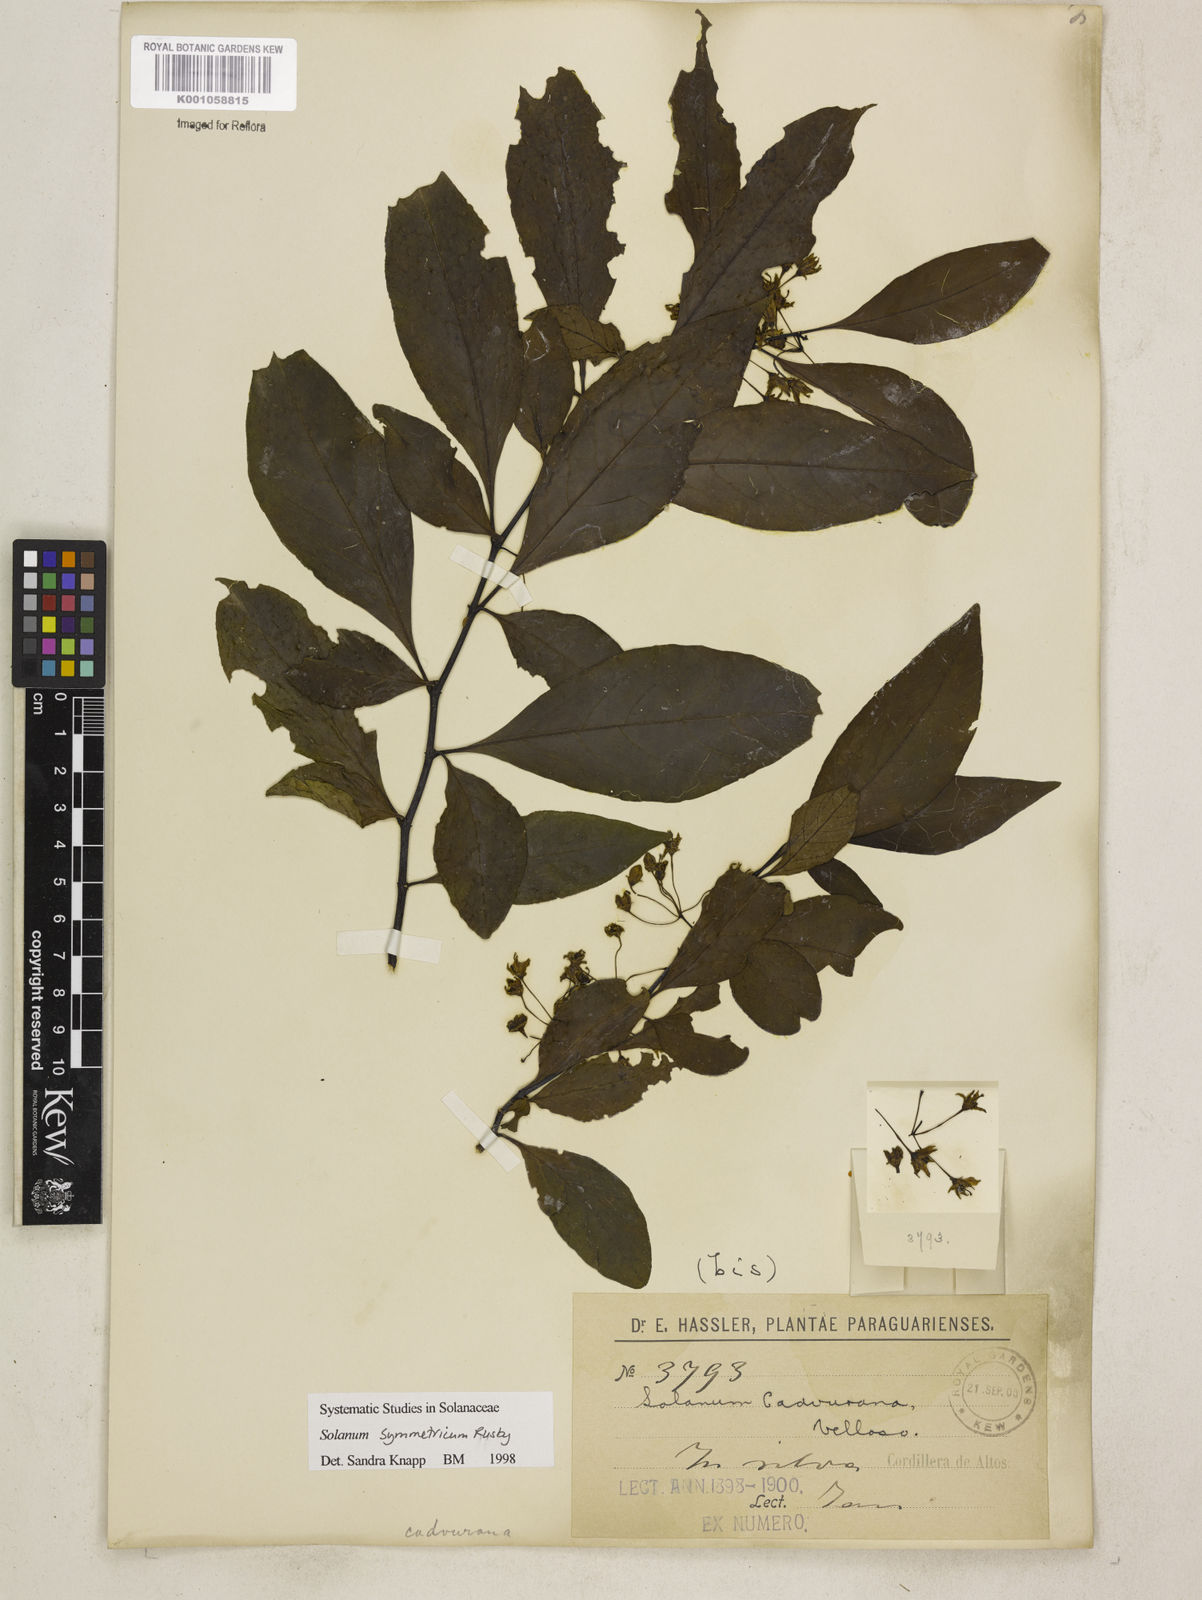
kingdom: Plantae
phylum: Tracheophyta
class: Magnoliopsida
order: Solanales
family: Solanaceae
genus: Solanum
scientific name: Solanum symmetricum
